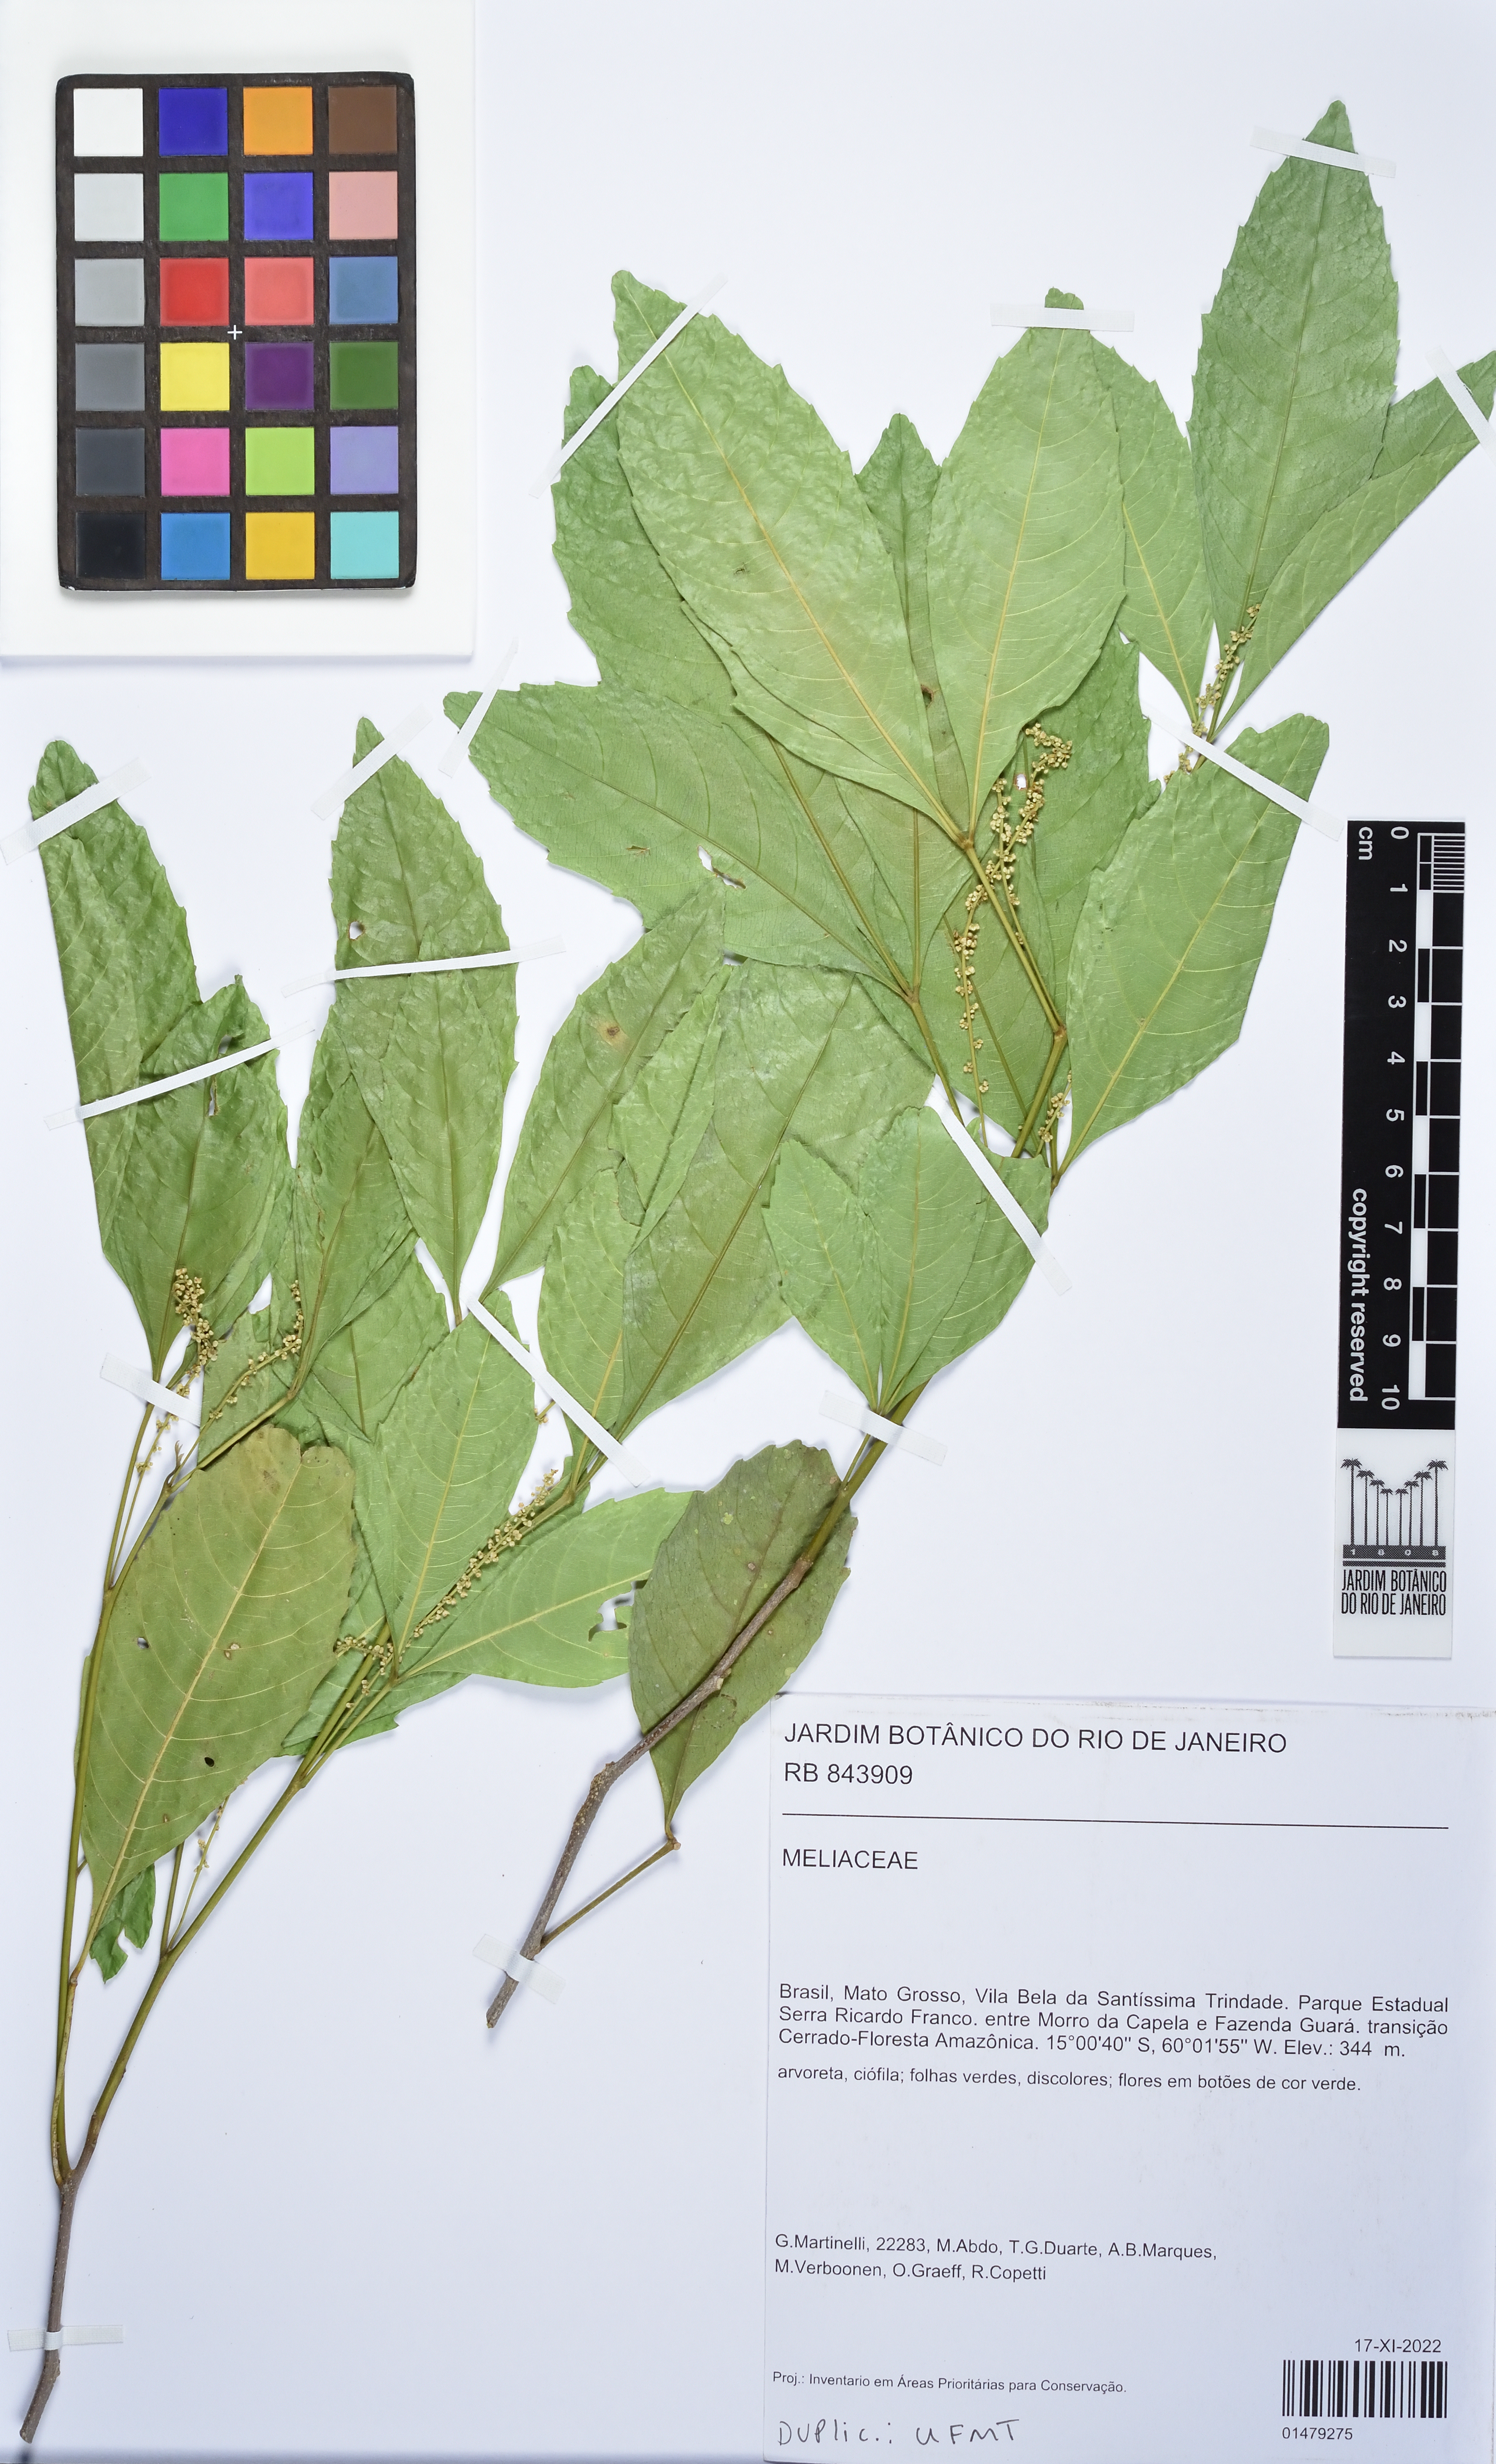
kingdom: Plantae
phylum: Tracheophyta
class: Magnoliopsida
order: Sapindales
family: Meliaceae
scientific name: Meliaceae
